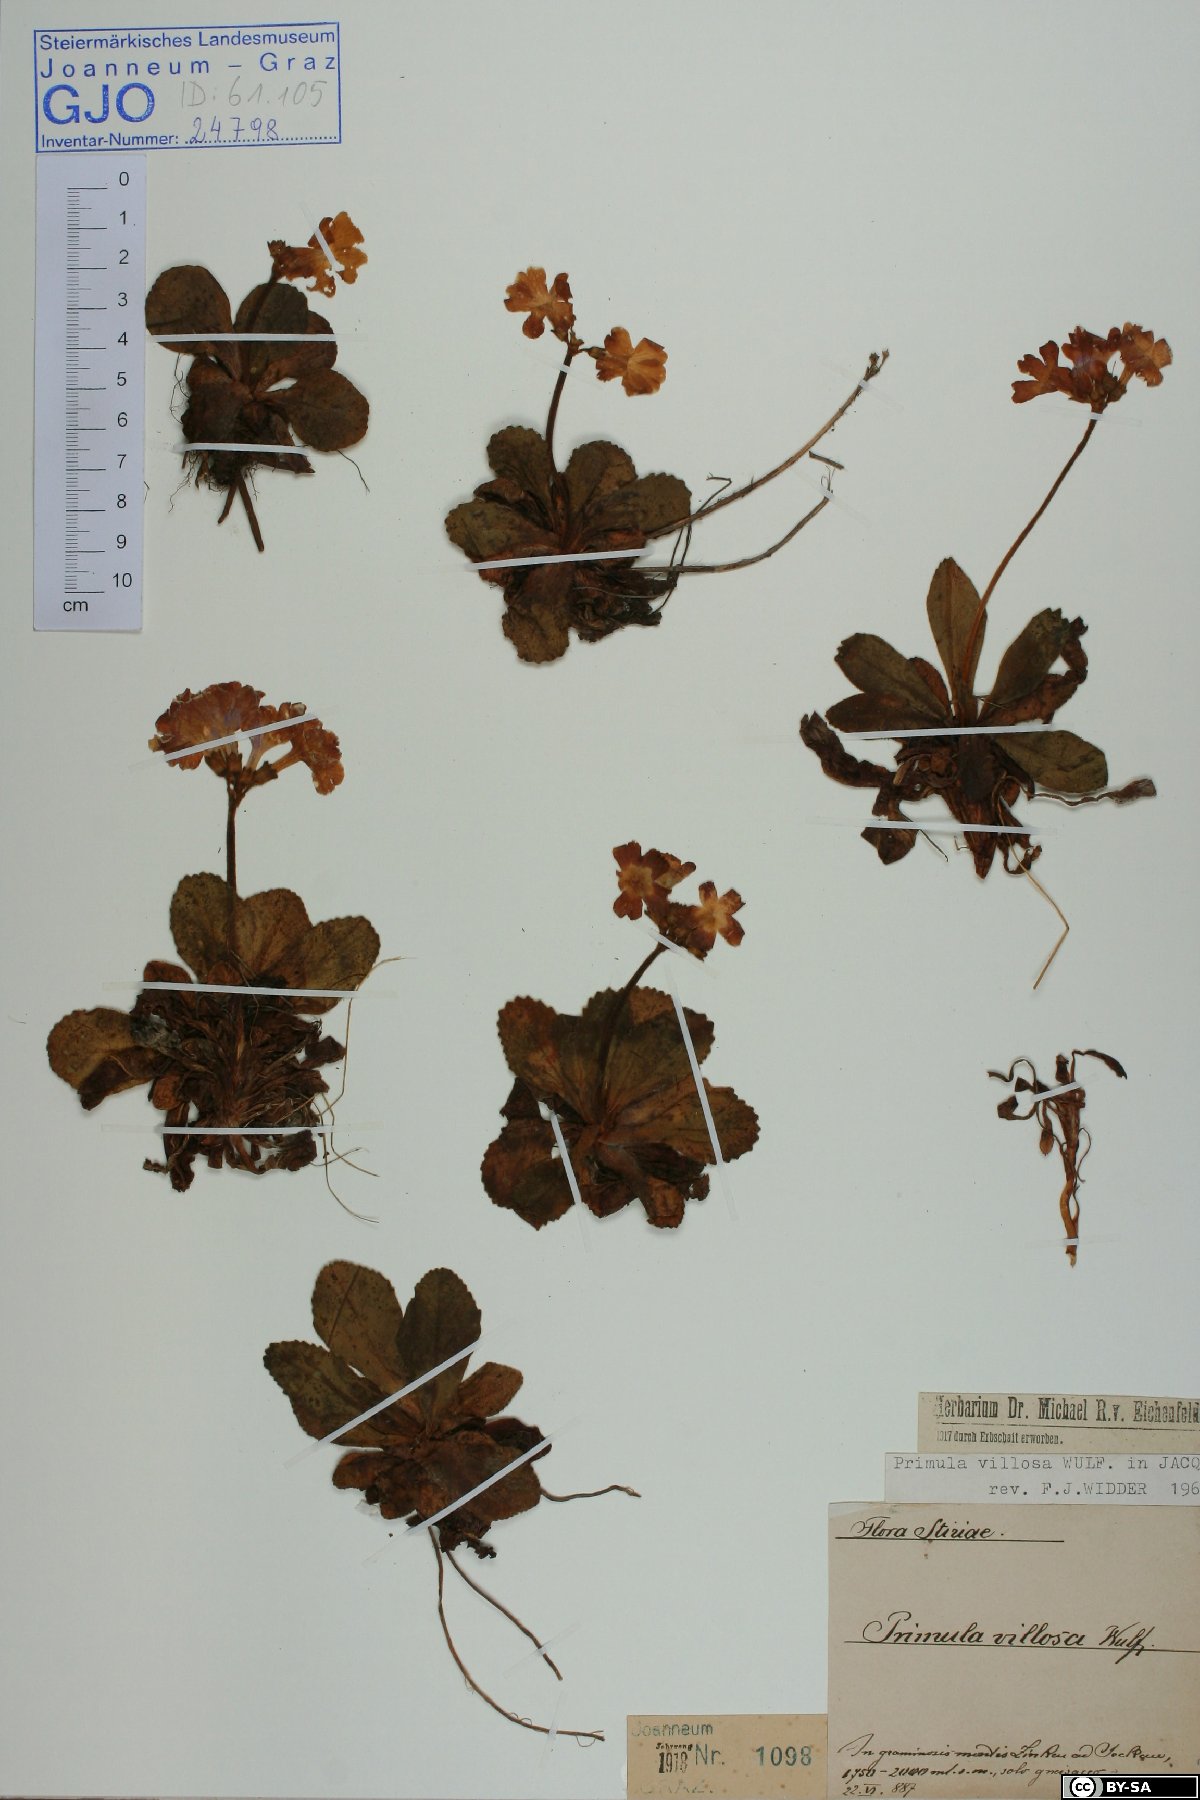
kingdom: Plantae
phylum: Tracheophyta
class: Magnoliopsida
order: Ericales
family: Primulaceae
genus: Primula
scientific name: Primula villosa
